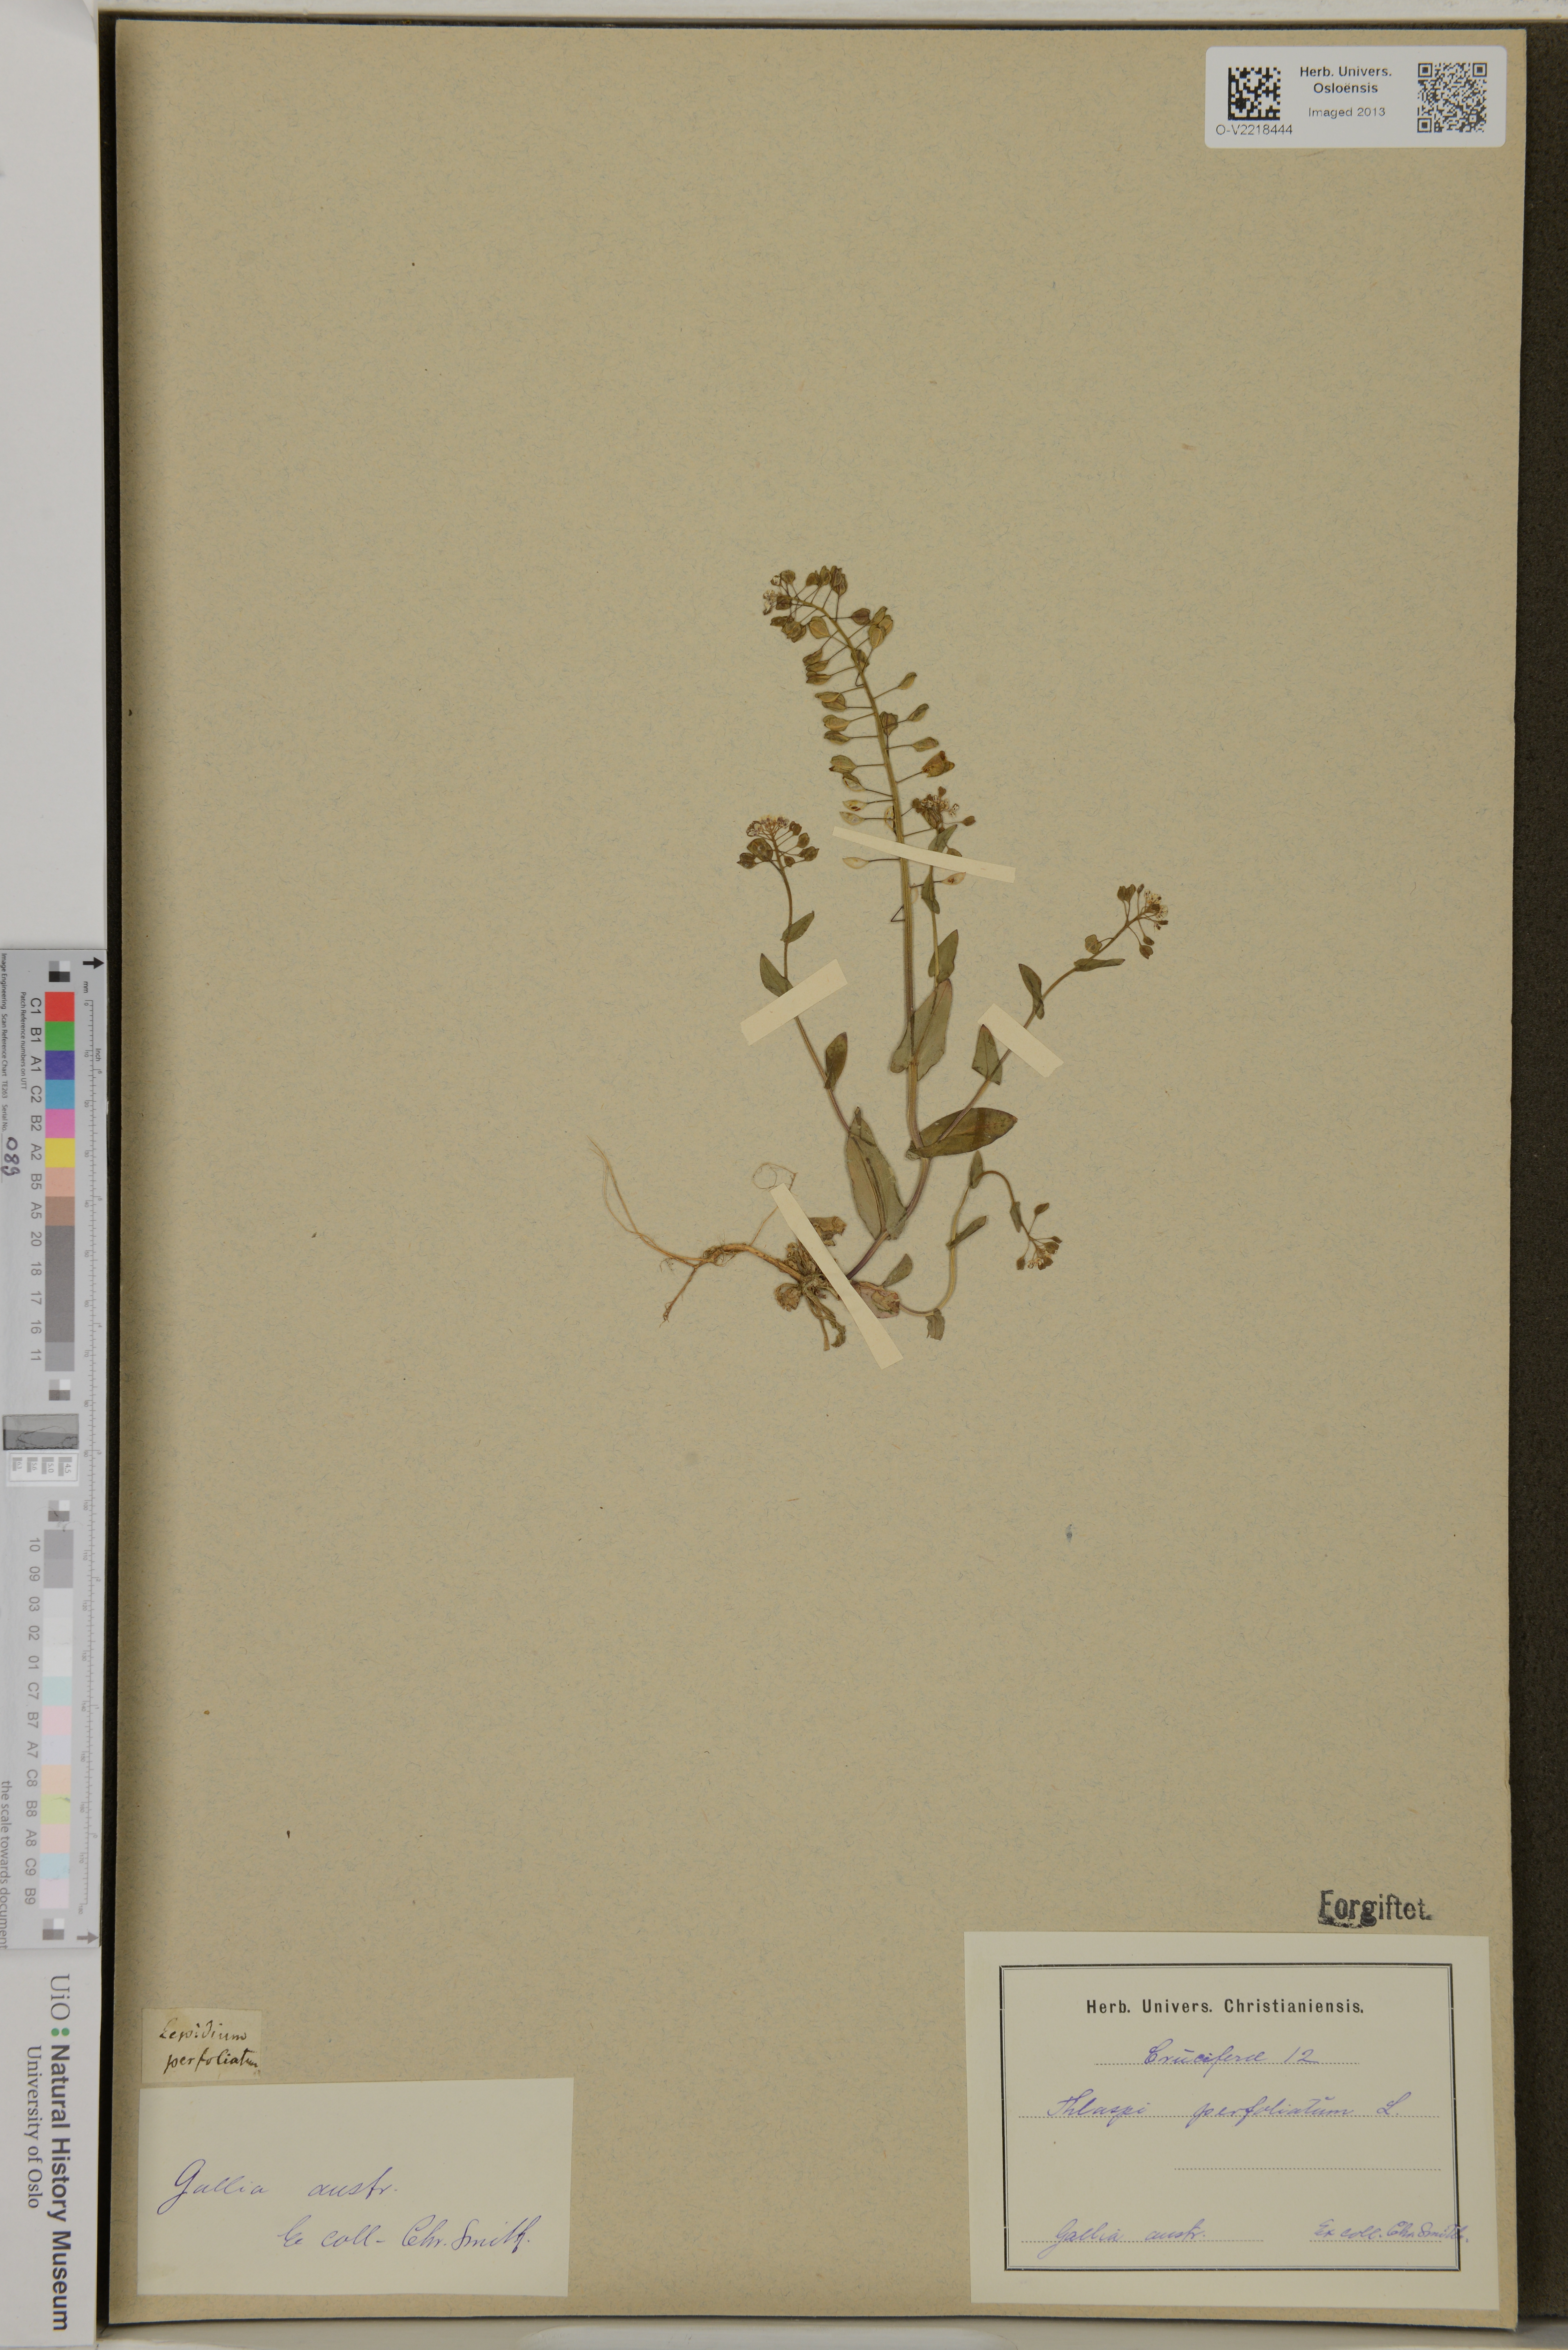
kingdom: Plantae
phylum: Tracheophyta
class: Magnoliopsida
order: Brassicales
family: Brassicaceae
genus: Noccaea
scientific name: Noccaea perfoliata
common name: Perfoliate pennycress
